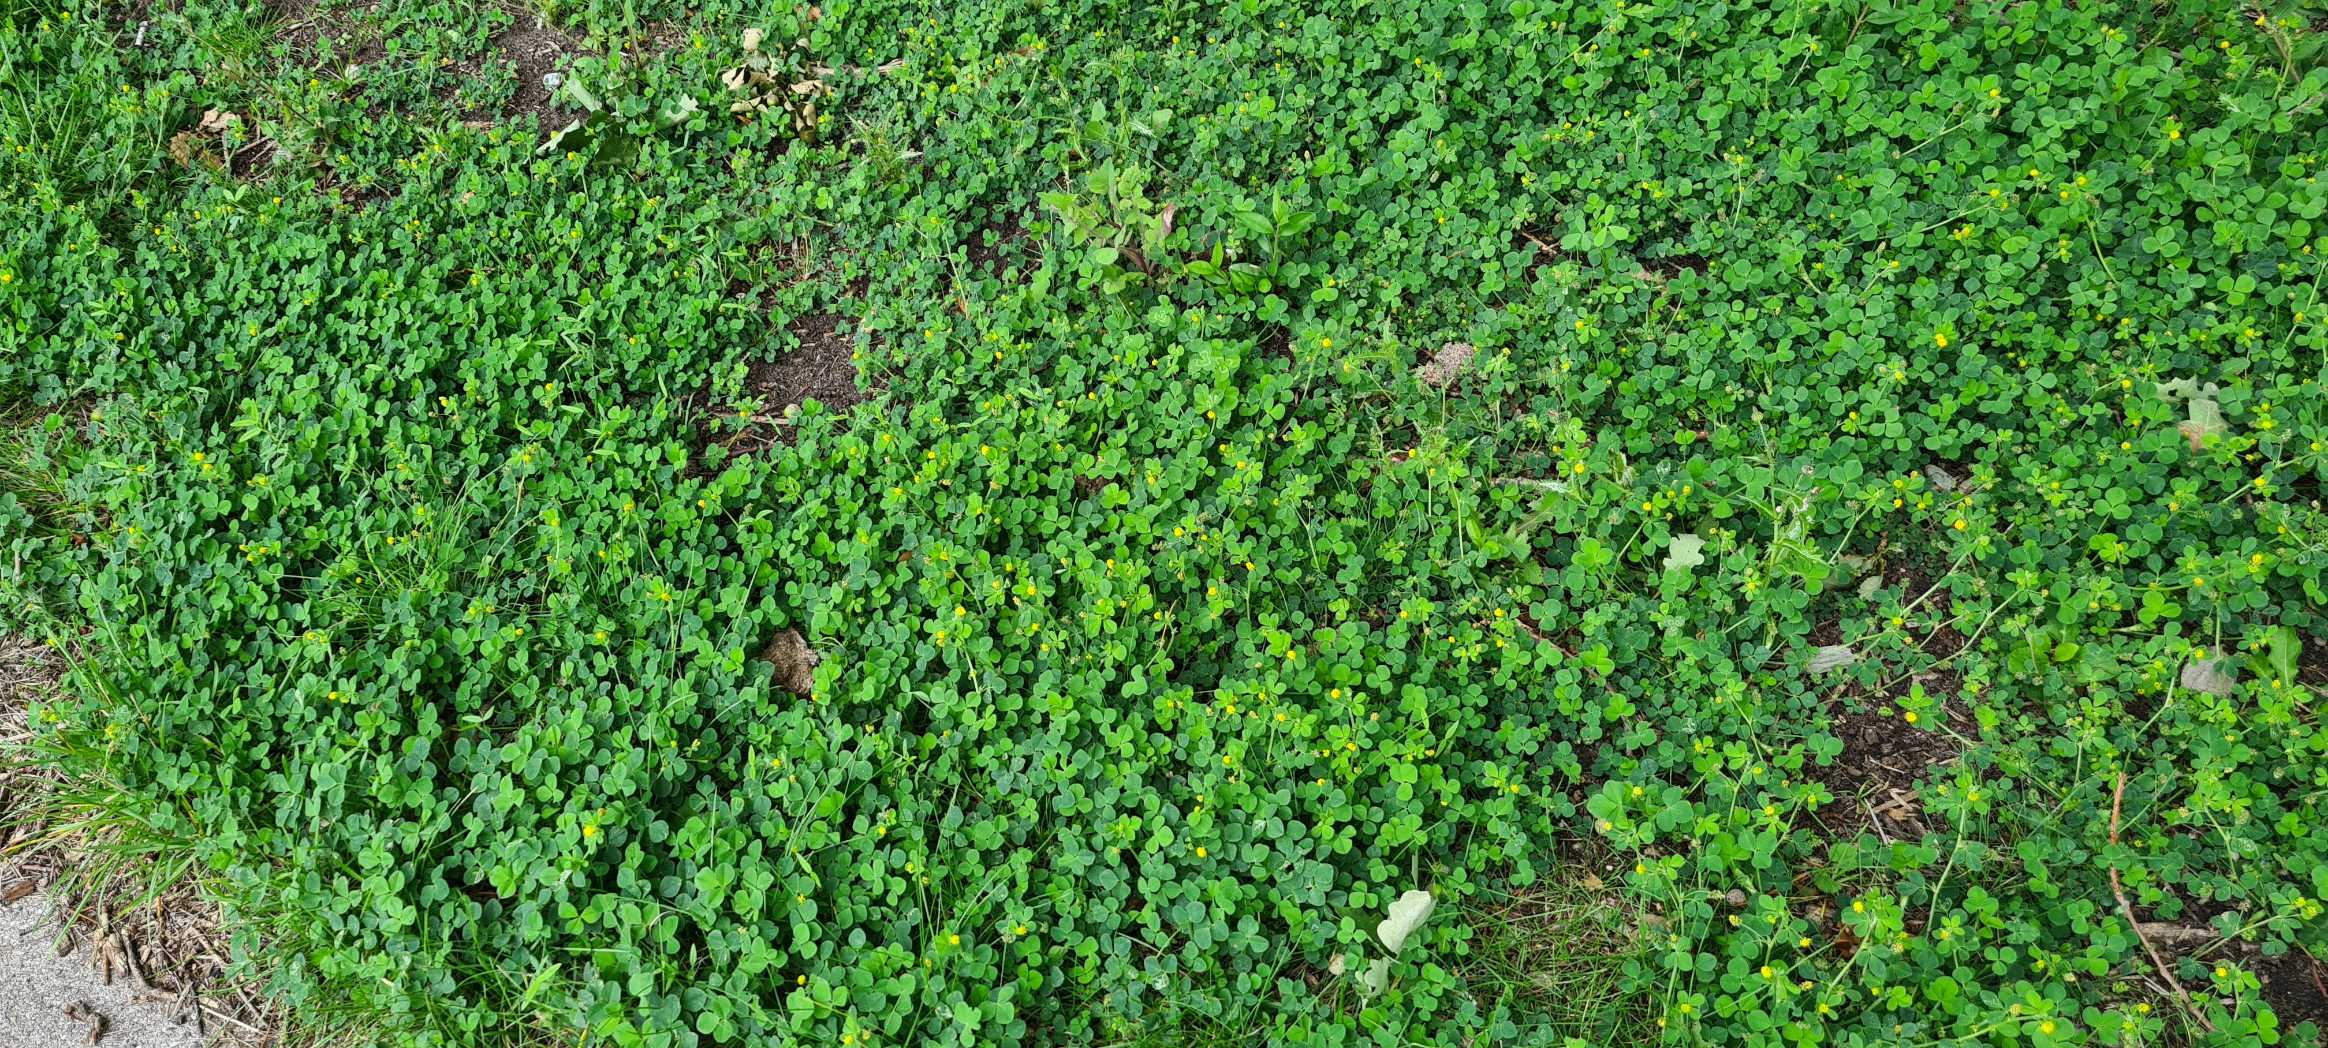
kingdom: Plantae
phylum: Tracheophyta
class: Magnoliopsida
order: Fabales
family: Fabaceae
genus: Medicago
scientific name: Medicago lupulina
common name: Humle-sneglebælg
